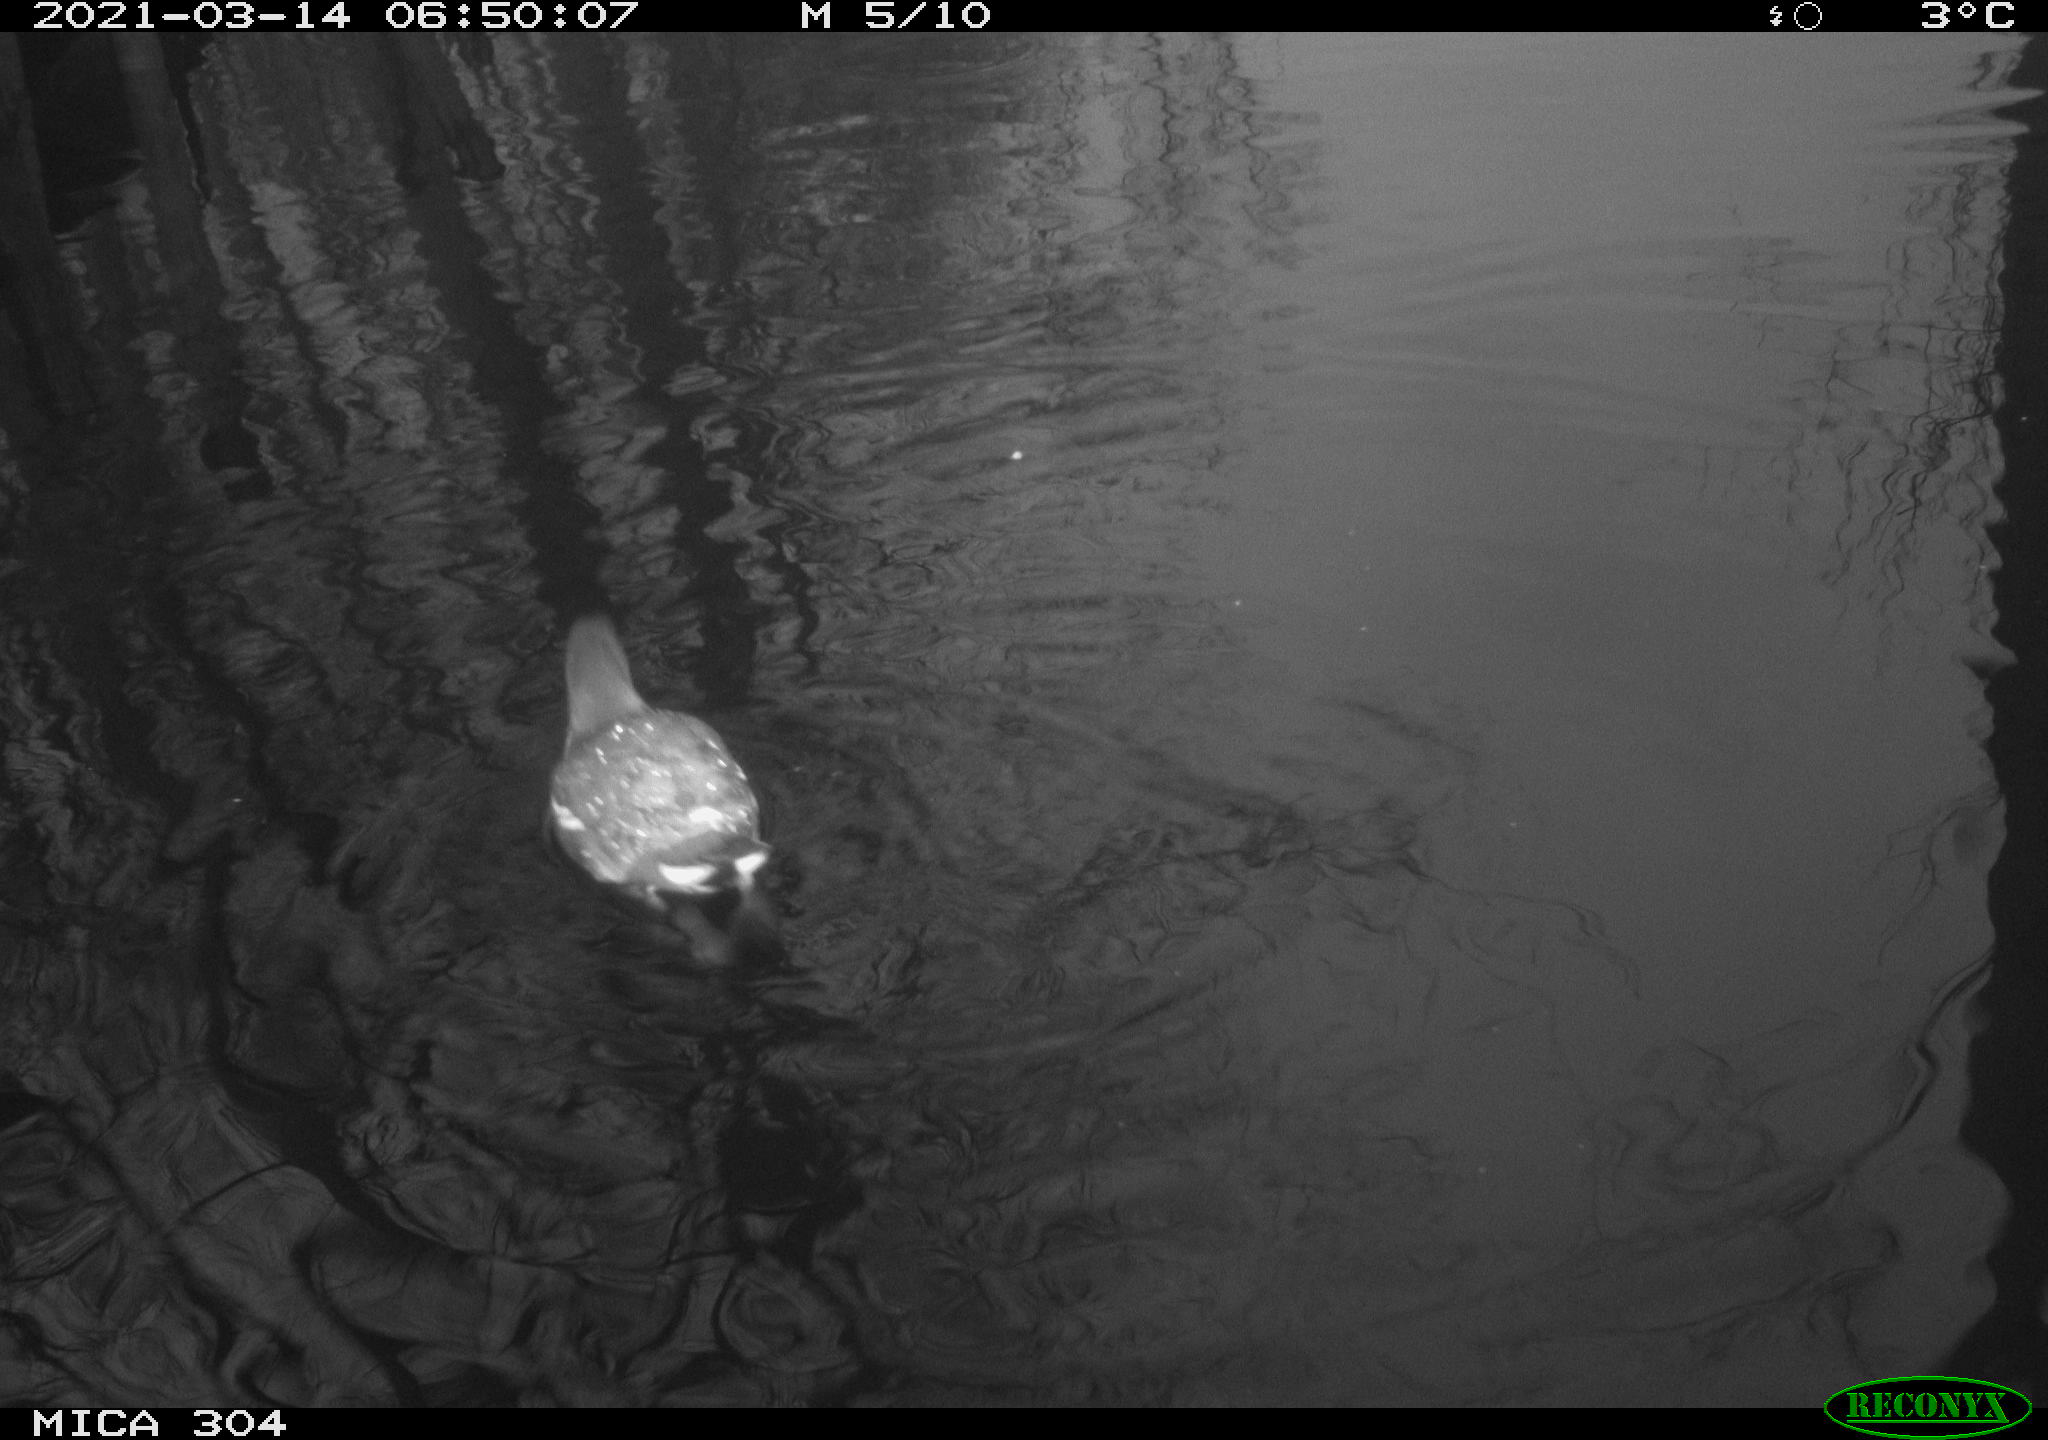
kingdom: Animalia
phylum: Chordata
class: Aves
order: Gruiformes
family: Rallidae
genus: Gallinula
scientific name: Gallinula chloropus
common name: Common moorhen
